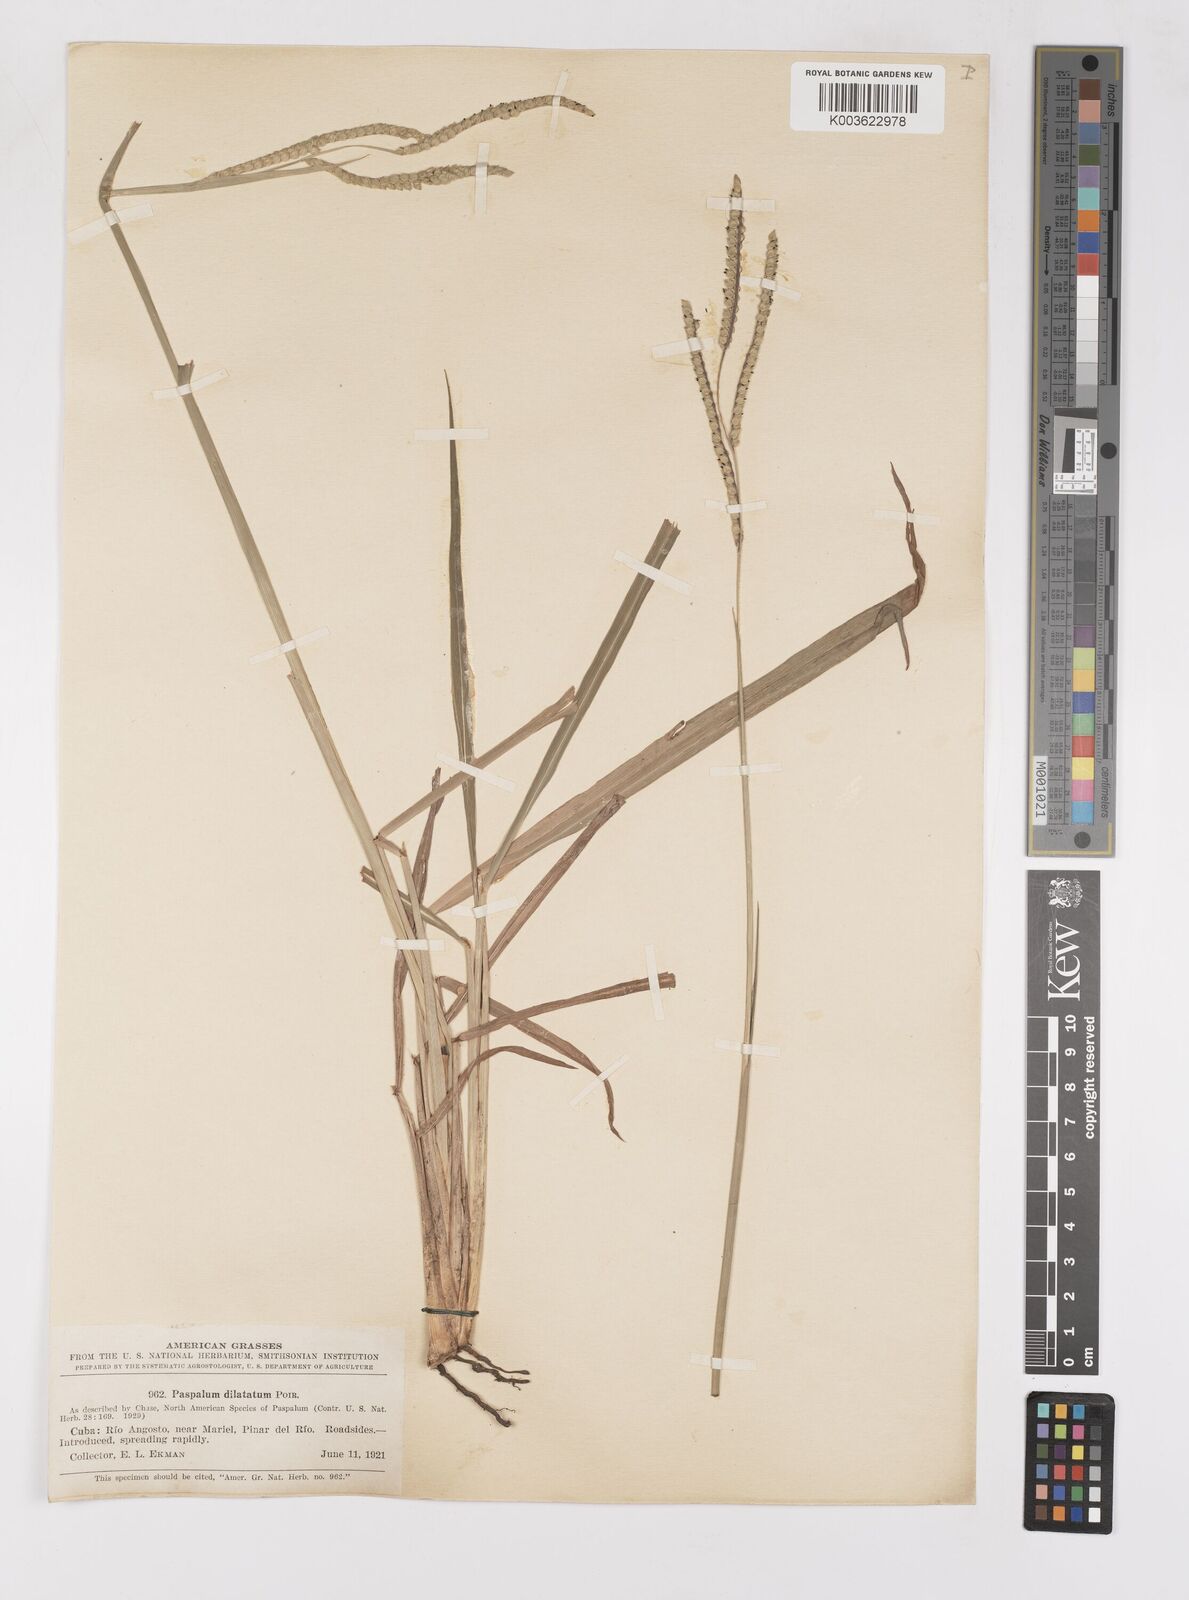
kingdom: Plantae
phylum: Tracheophyta
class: Liliopsida
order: Poales
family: Poaceae
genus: Paspalum
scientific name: Paspalum dilatatum
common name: Dallisgrass
